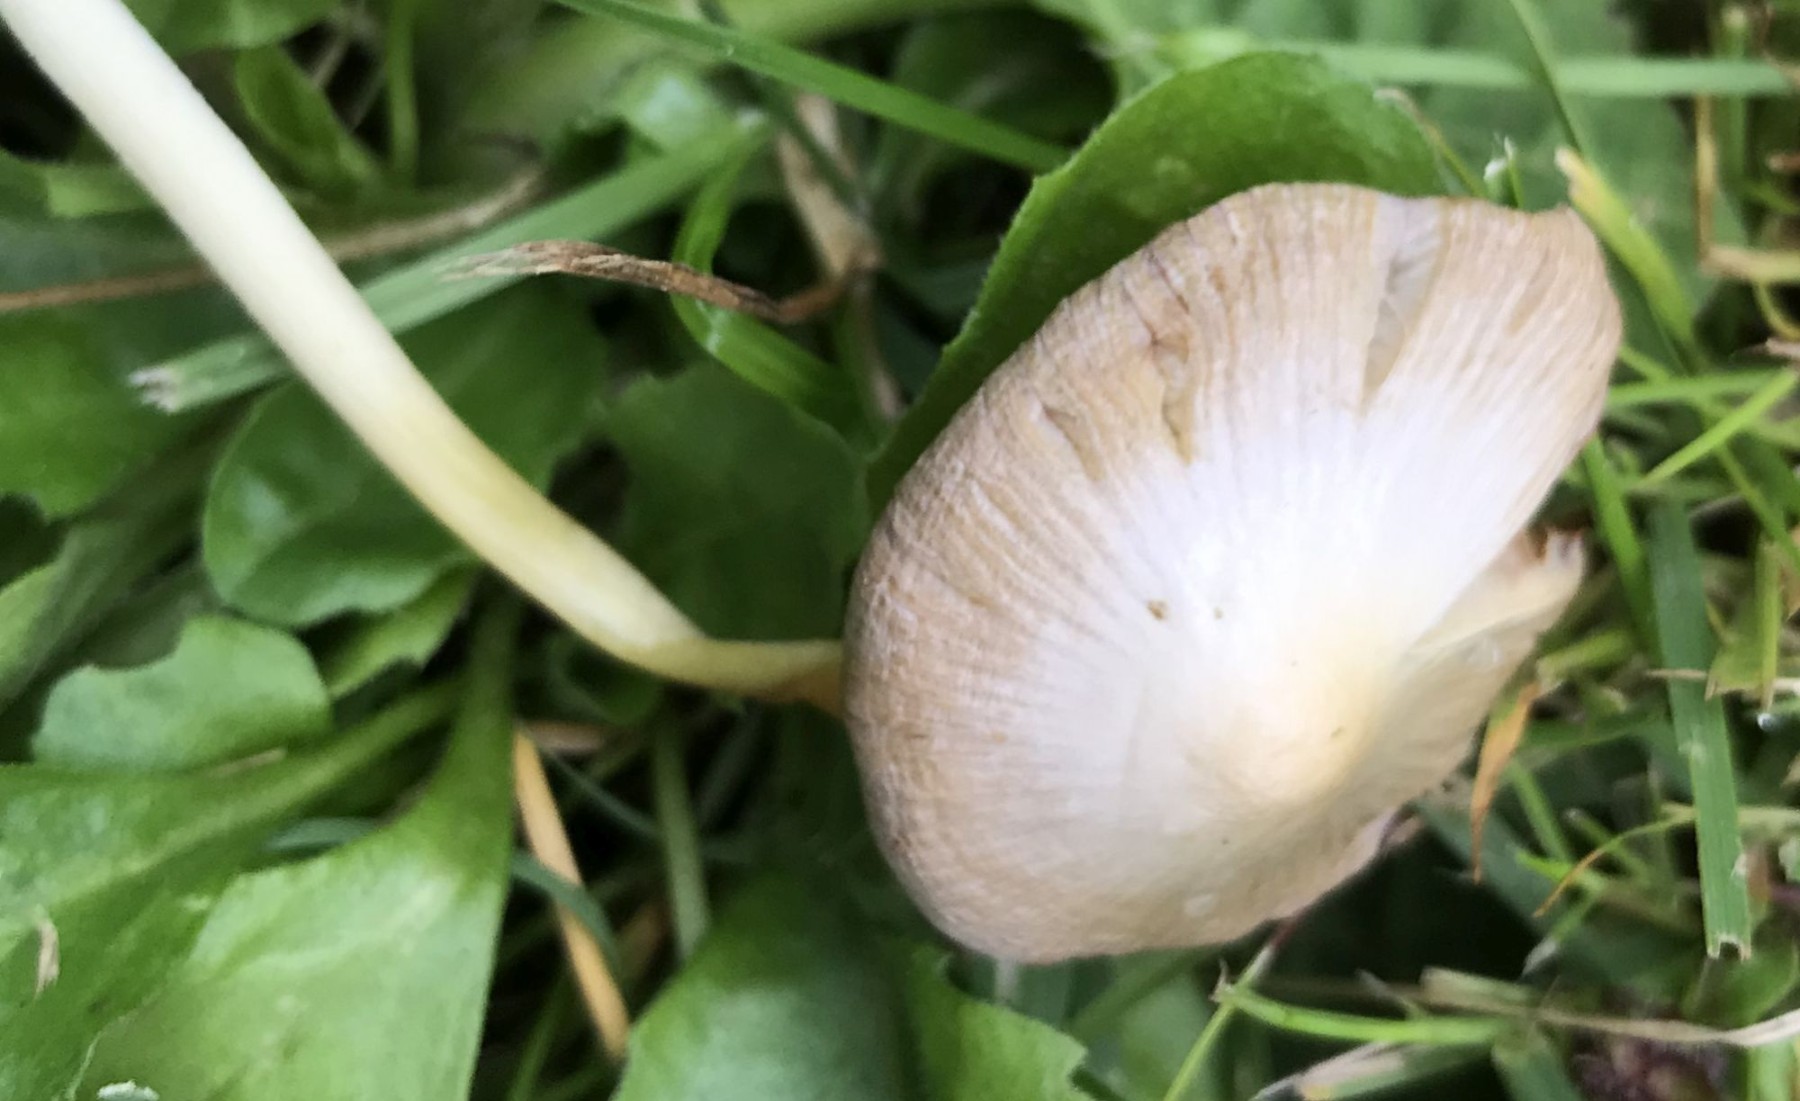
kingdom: Fungi
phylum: Basidiomycota
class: Agaricomycetes
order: Agaricales
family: Bolbitiaceae
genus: Bolbitius
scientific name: Bolbitius titubans
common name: almindelig gulhat
